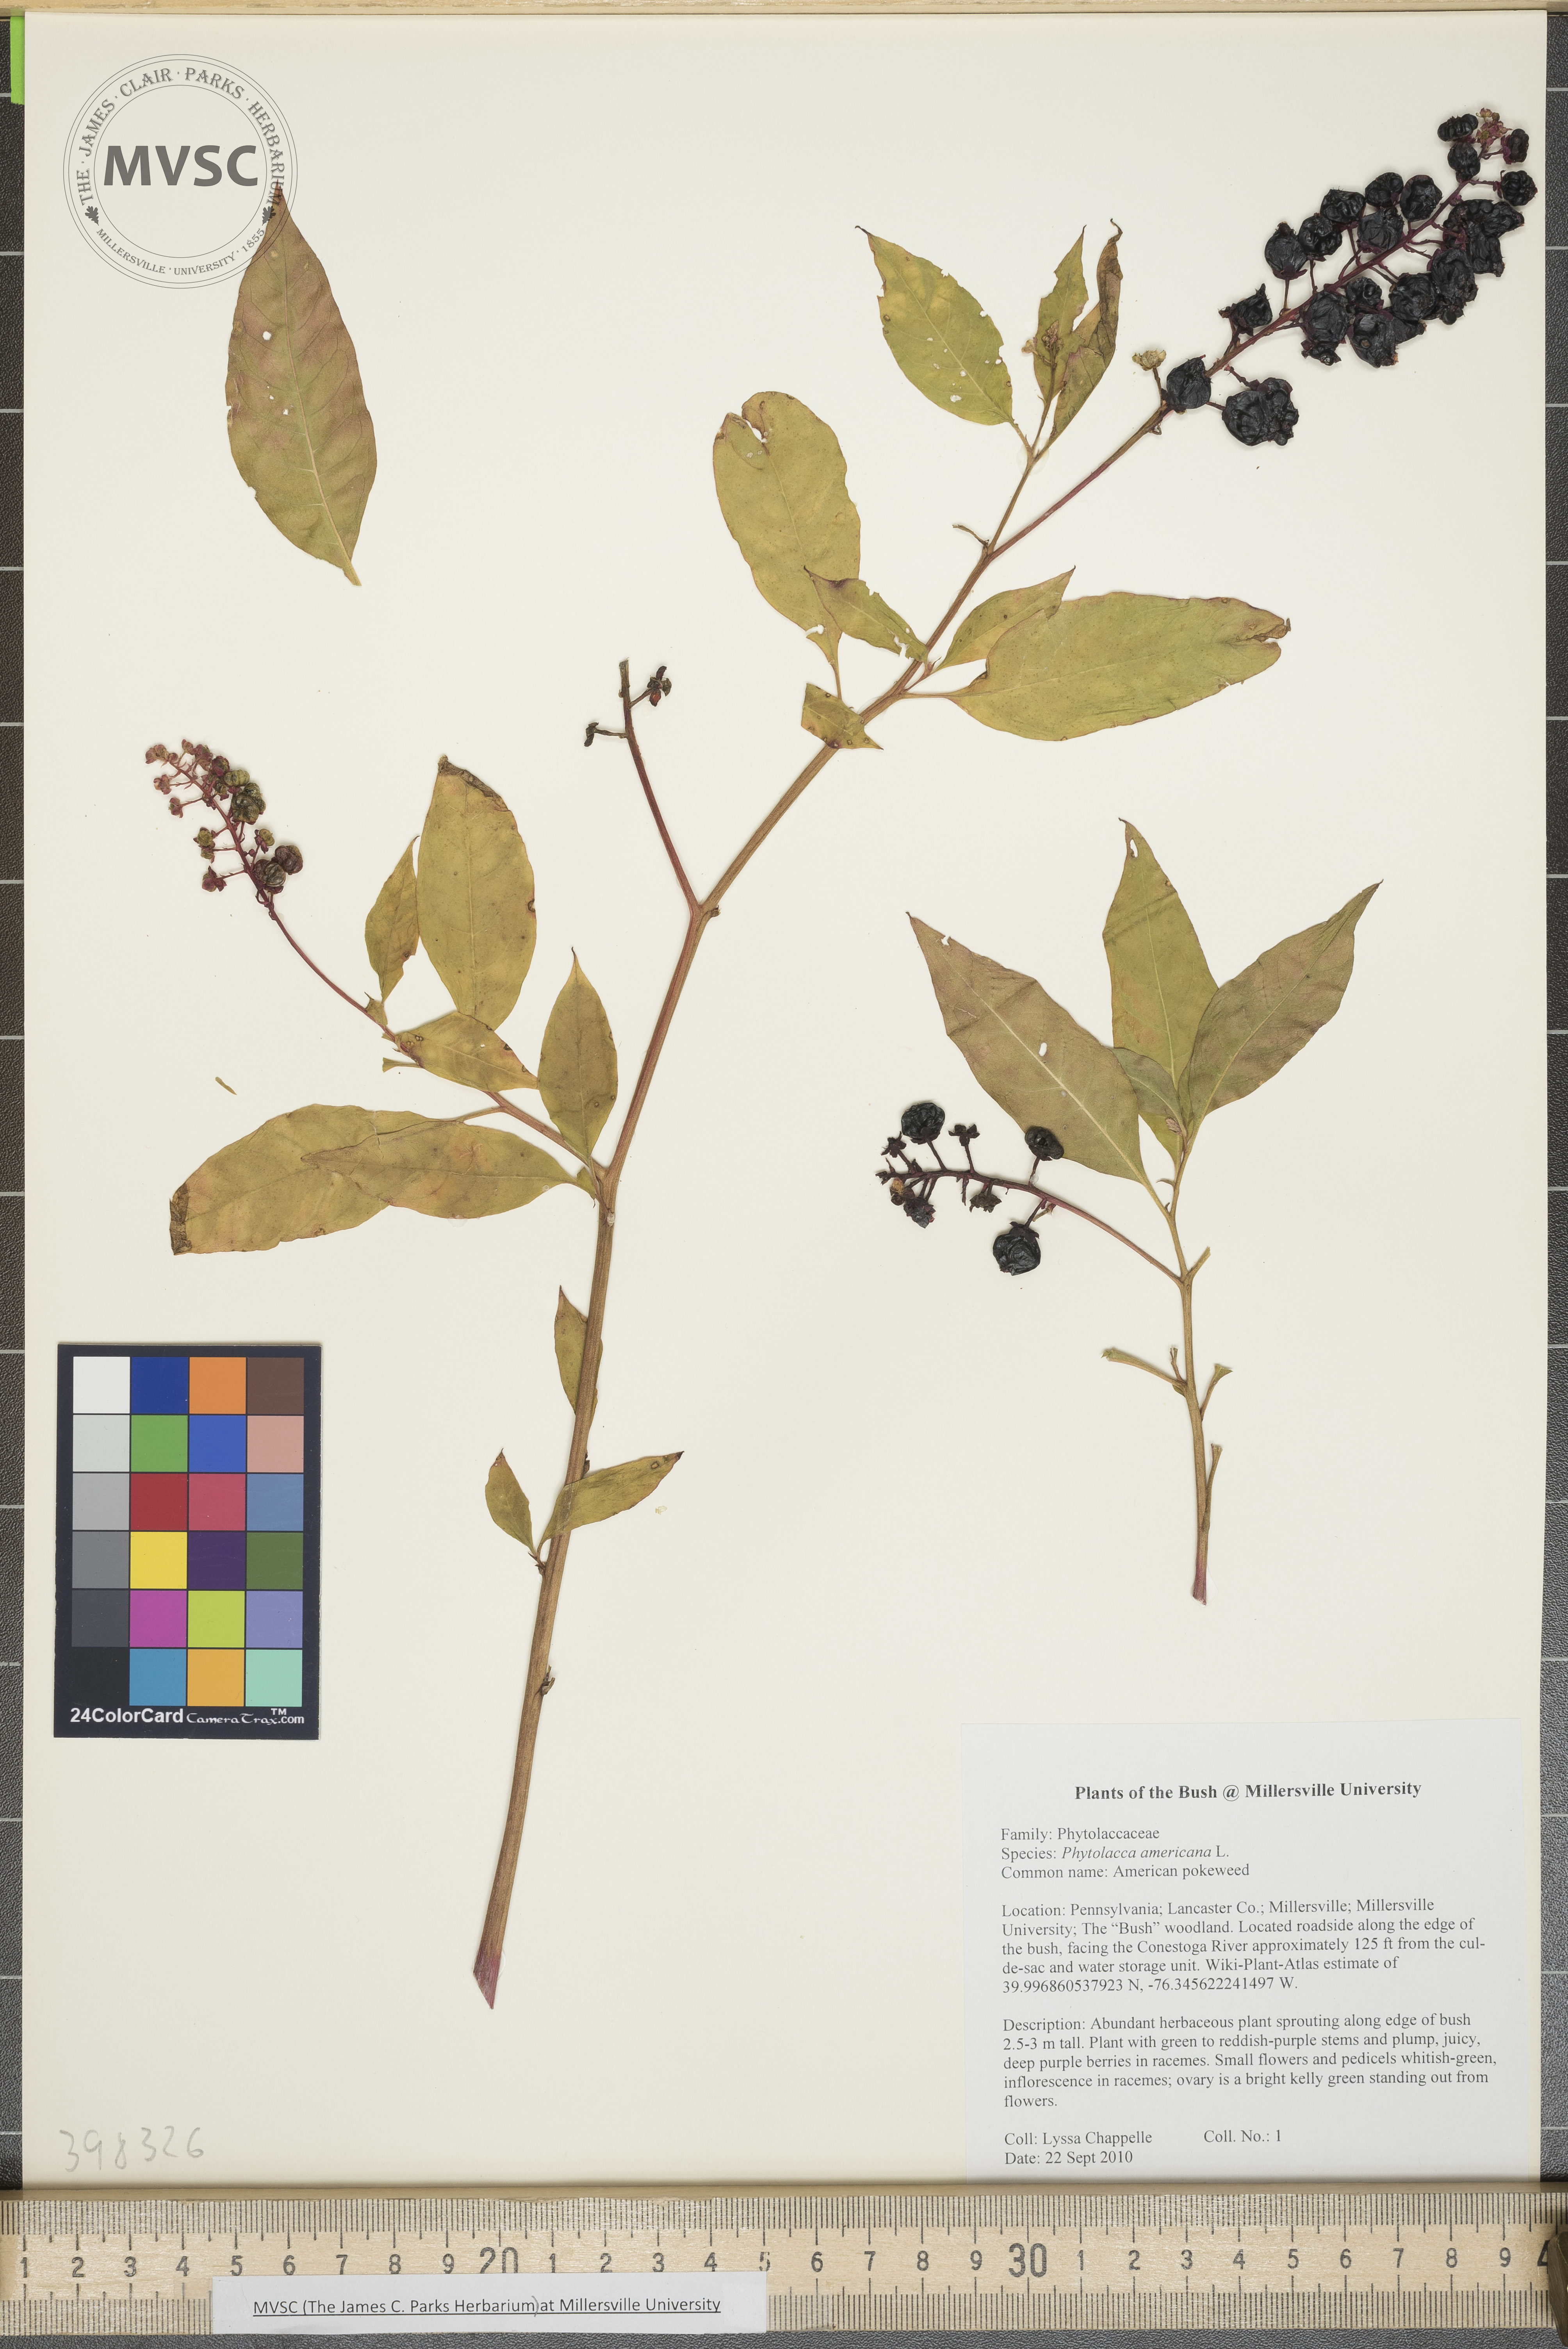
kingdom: Plantae
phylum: Tracheophyta
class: Magnoliopsida
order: Caryophyllales
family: Phytolaccaceae
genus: Phytolacca
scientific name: Phytolacca americana
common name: Pokeweed
